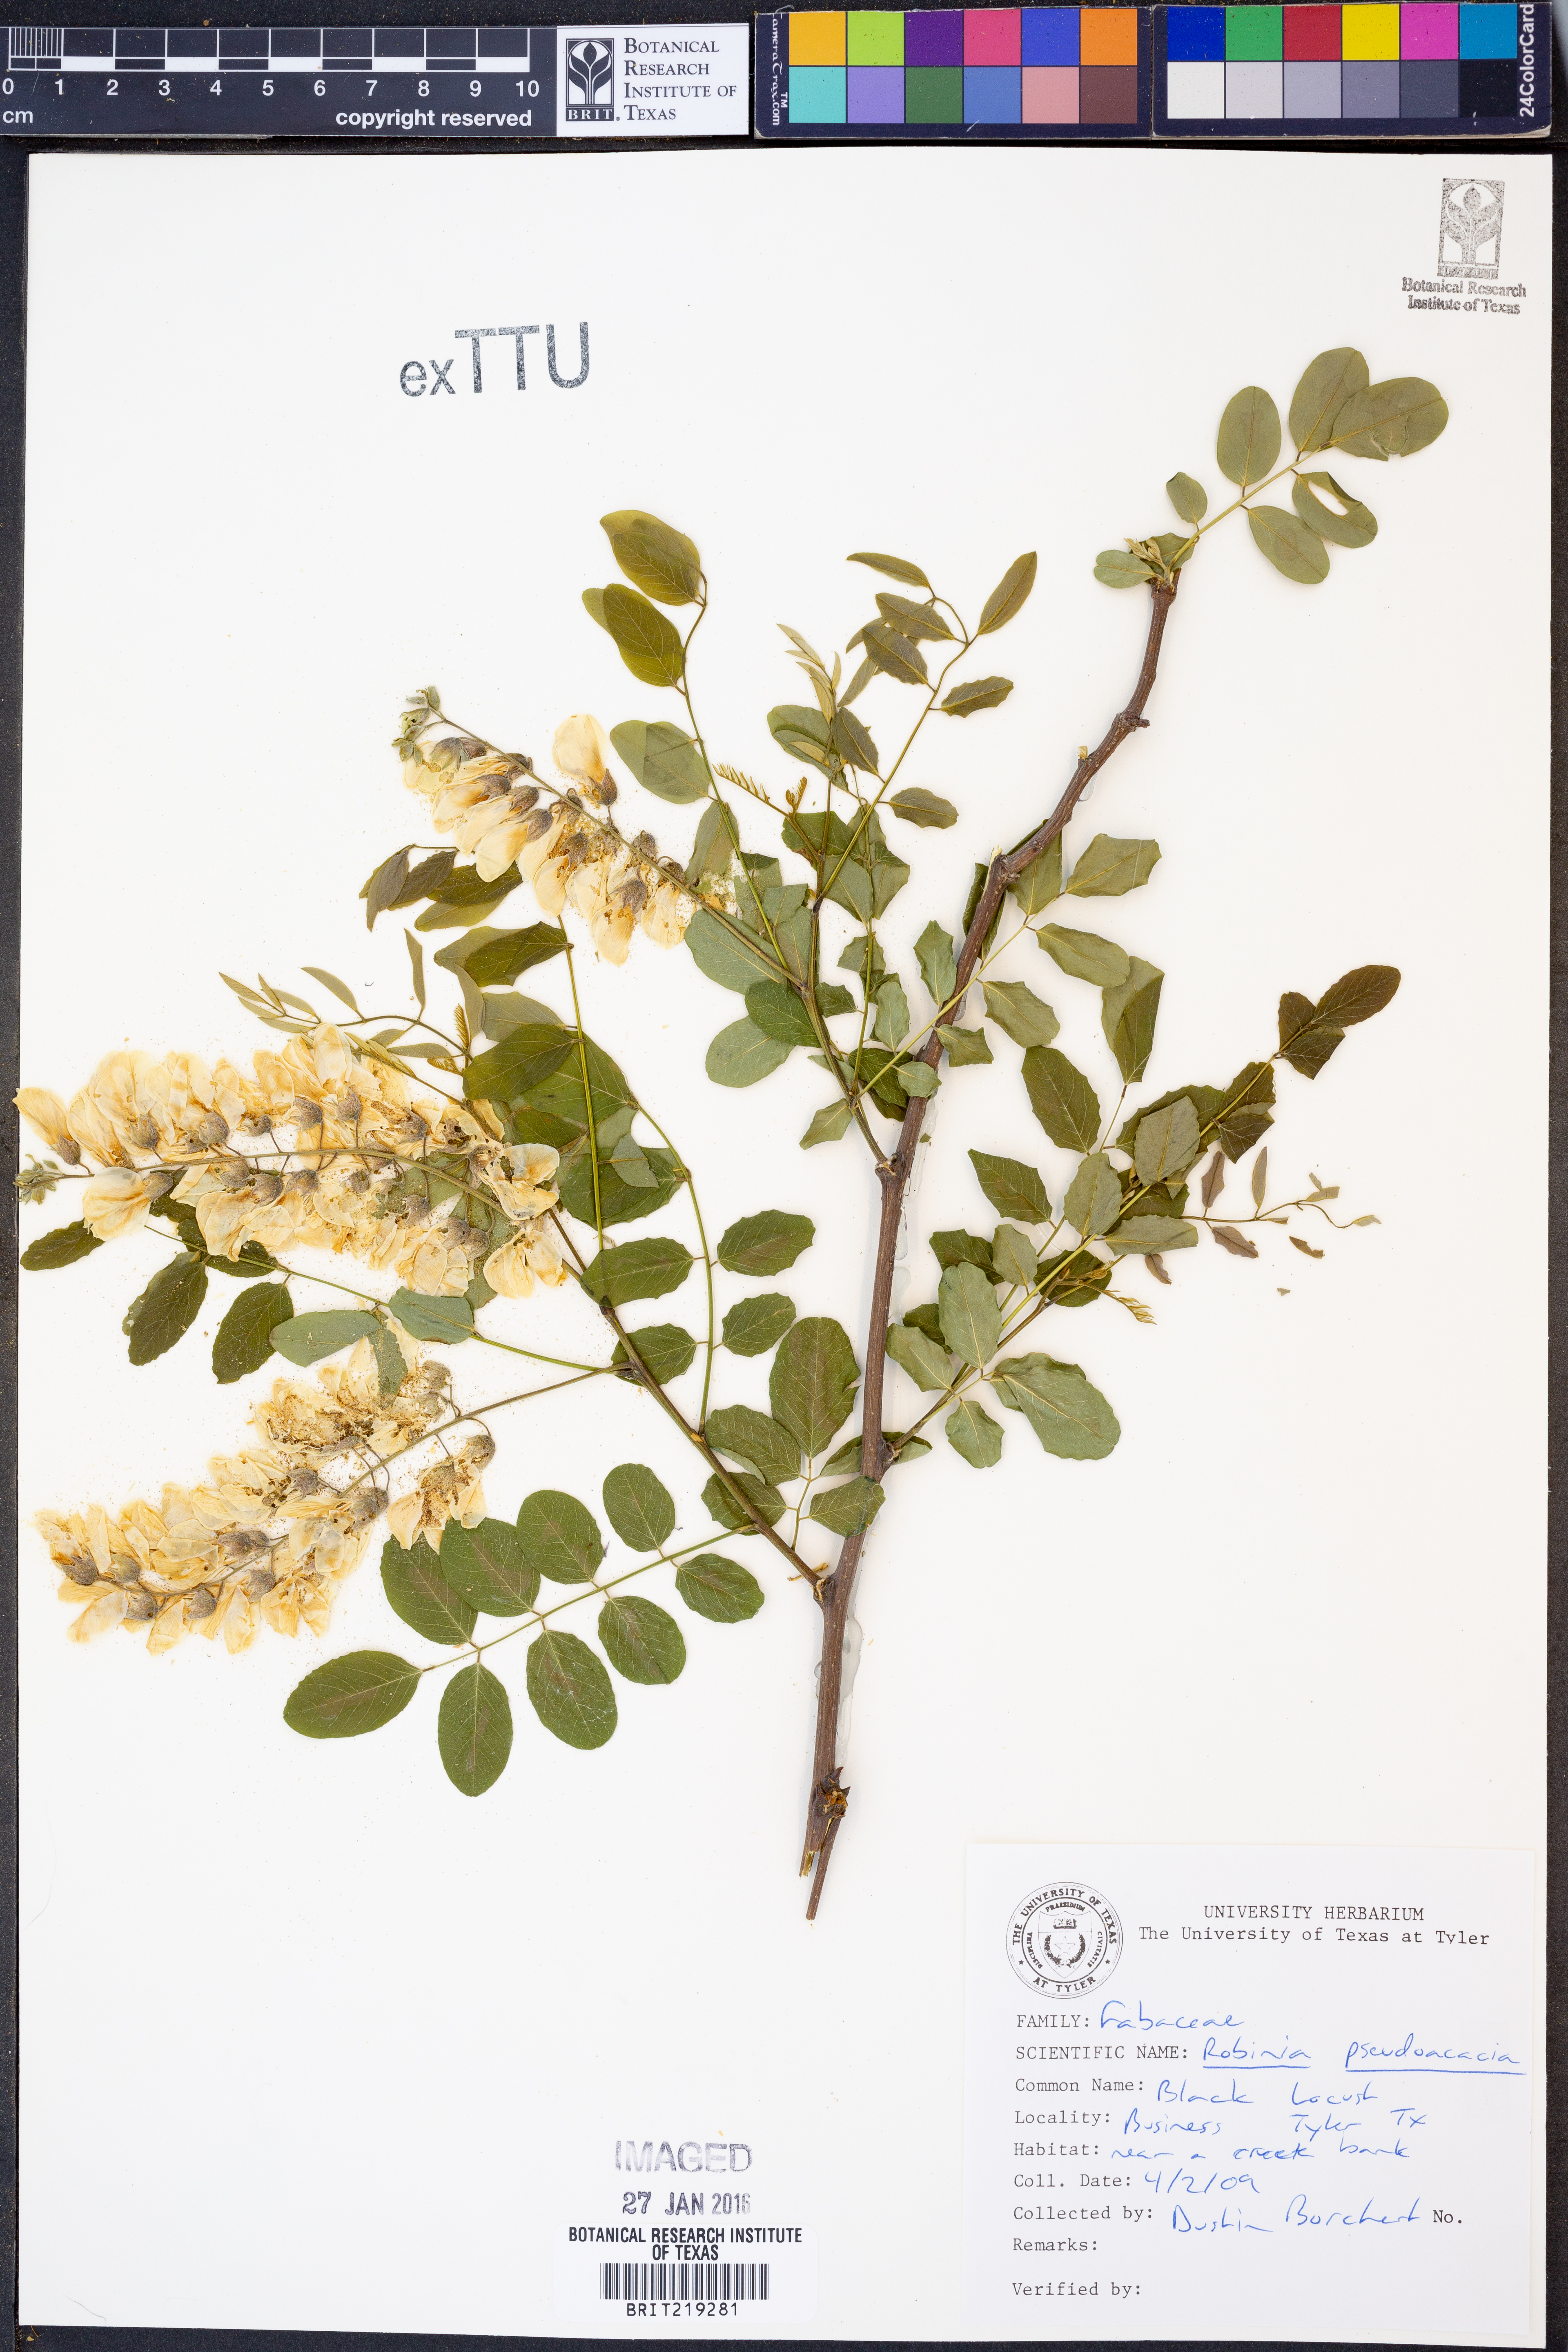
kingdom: Plantae
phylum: Tracheophyta
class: Magnoliopsida
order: Fabales
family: Fabaceae
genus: Robinia
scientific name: Robinia pseudoacacia
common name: Black locust
